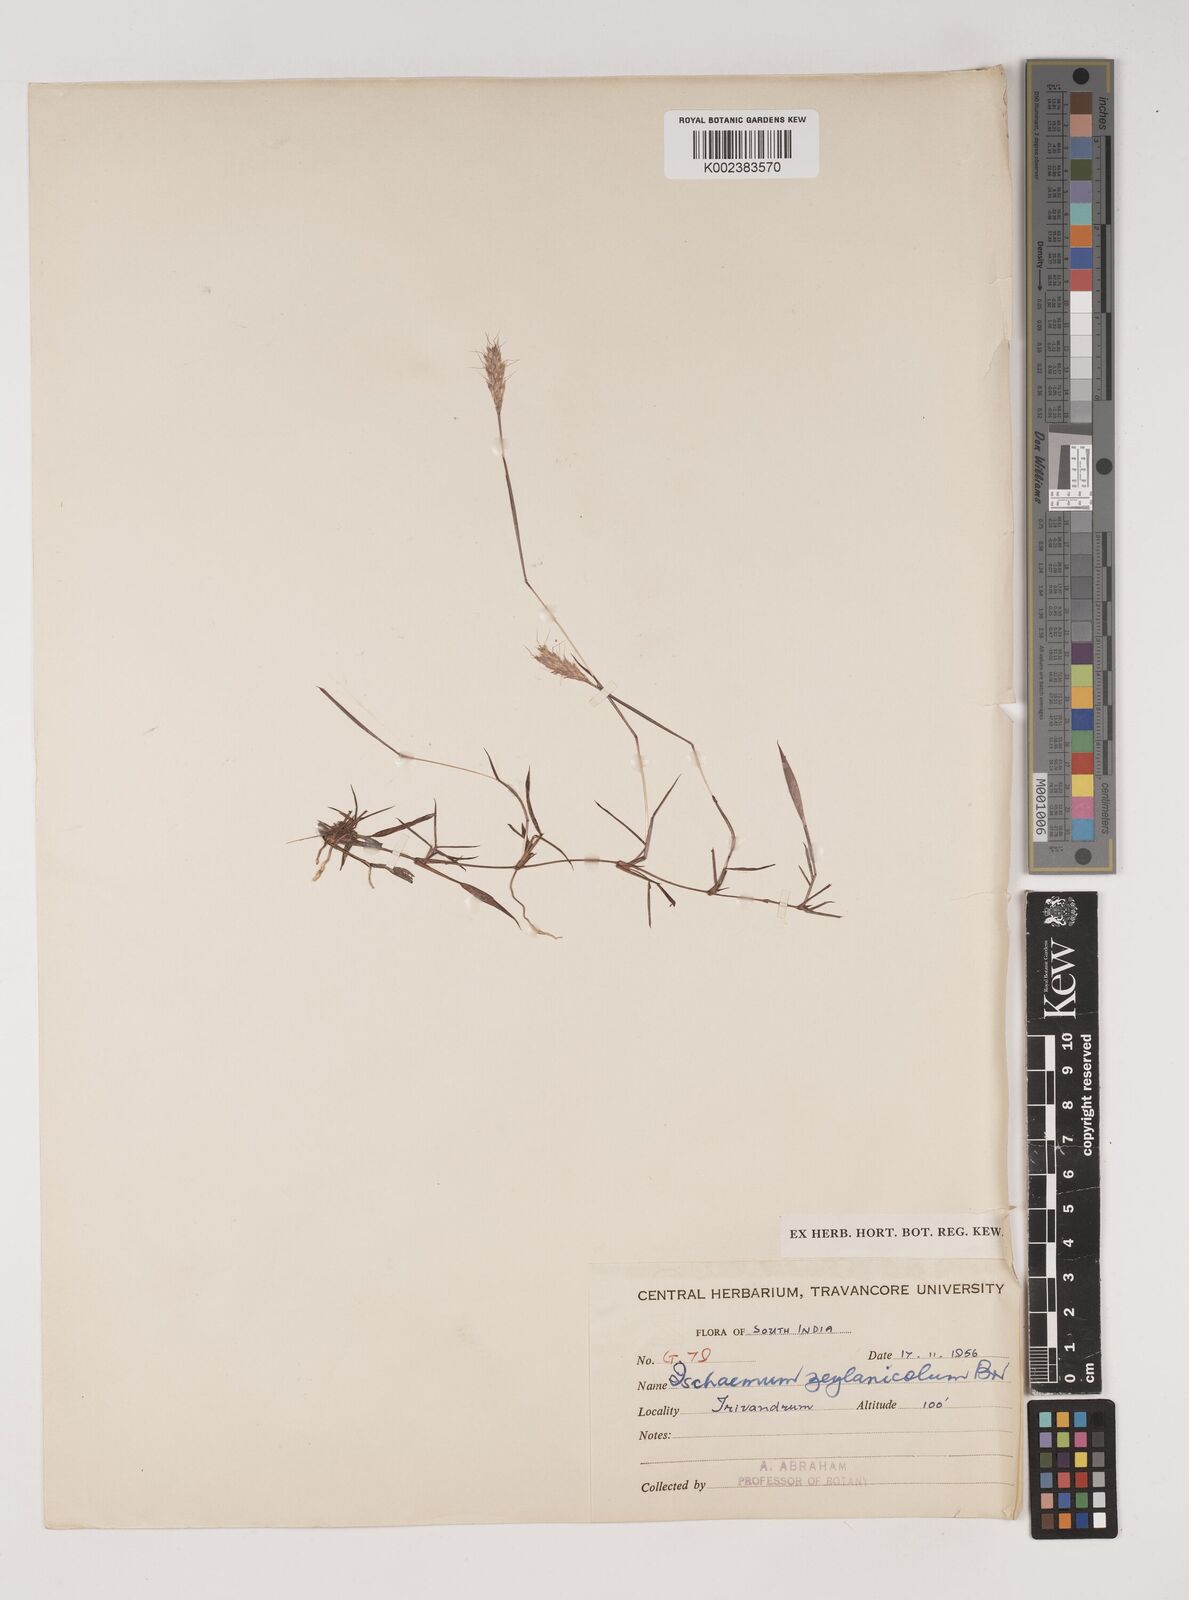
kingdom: Plantae
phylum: Tracheophyta
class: Liliopsida
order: Poales
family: Poaceae
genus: Ischaemum
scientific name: Ischaemum zeylanicola
